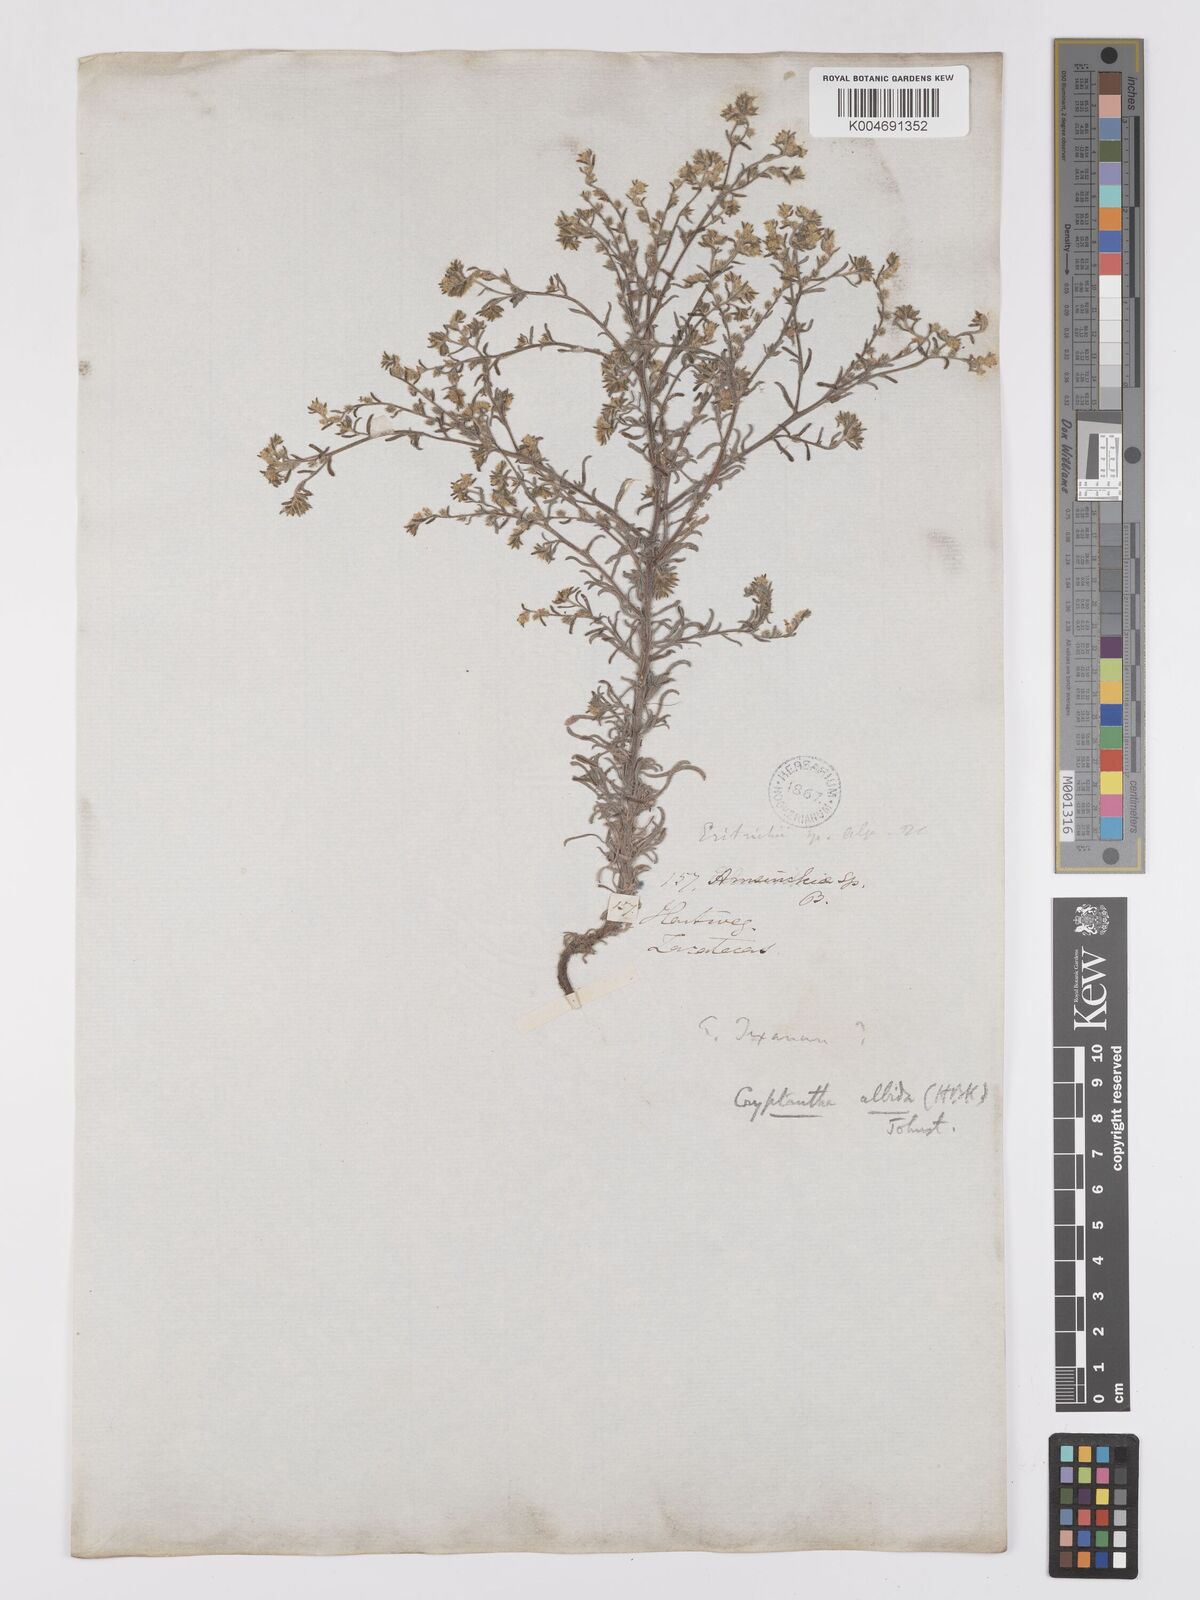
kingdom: Plantae
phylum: Tracheophyta
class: Magnoliopsida
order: Boraginales
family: Boraginaceae
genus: Johnstonella
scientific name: Johnstonella albida
